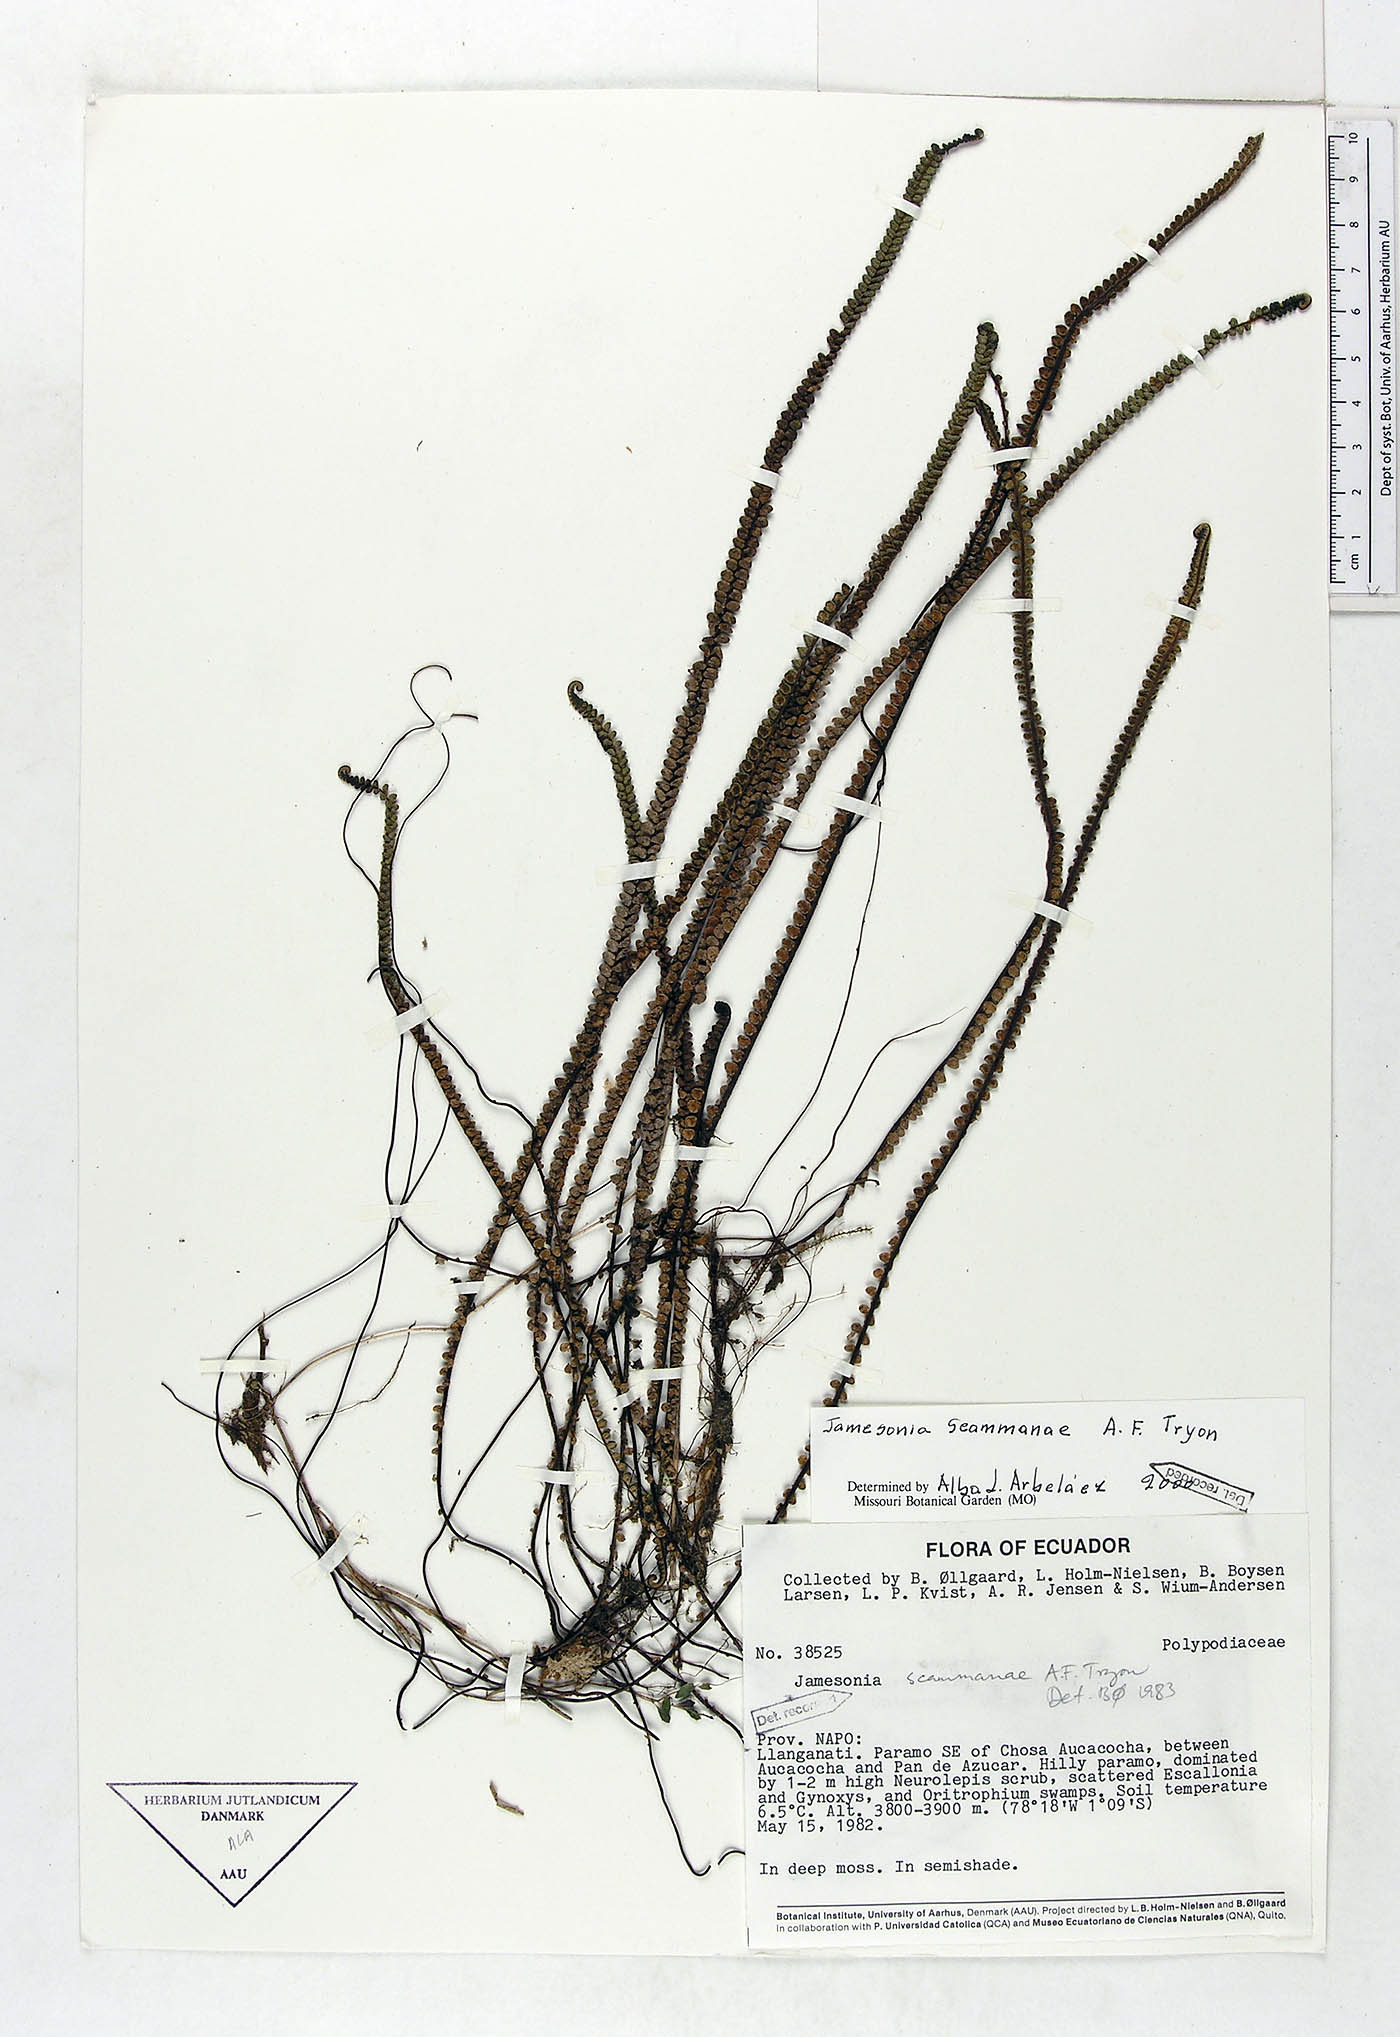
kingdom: Plantae
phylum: Tracheophyta
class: Polypodiopsida
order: Polypodiales
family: Pteridaceae
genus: Jamesonia
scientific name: Jamesonia scammanae
